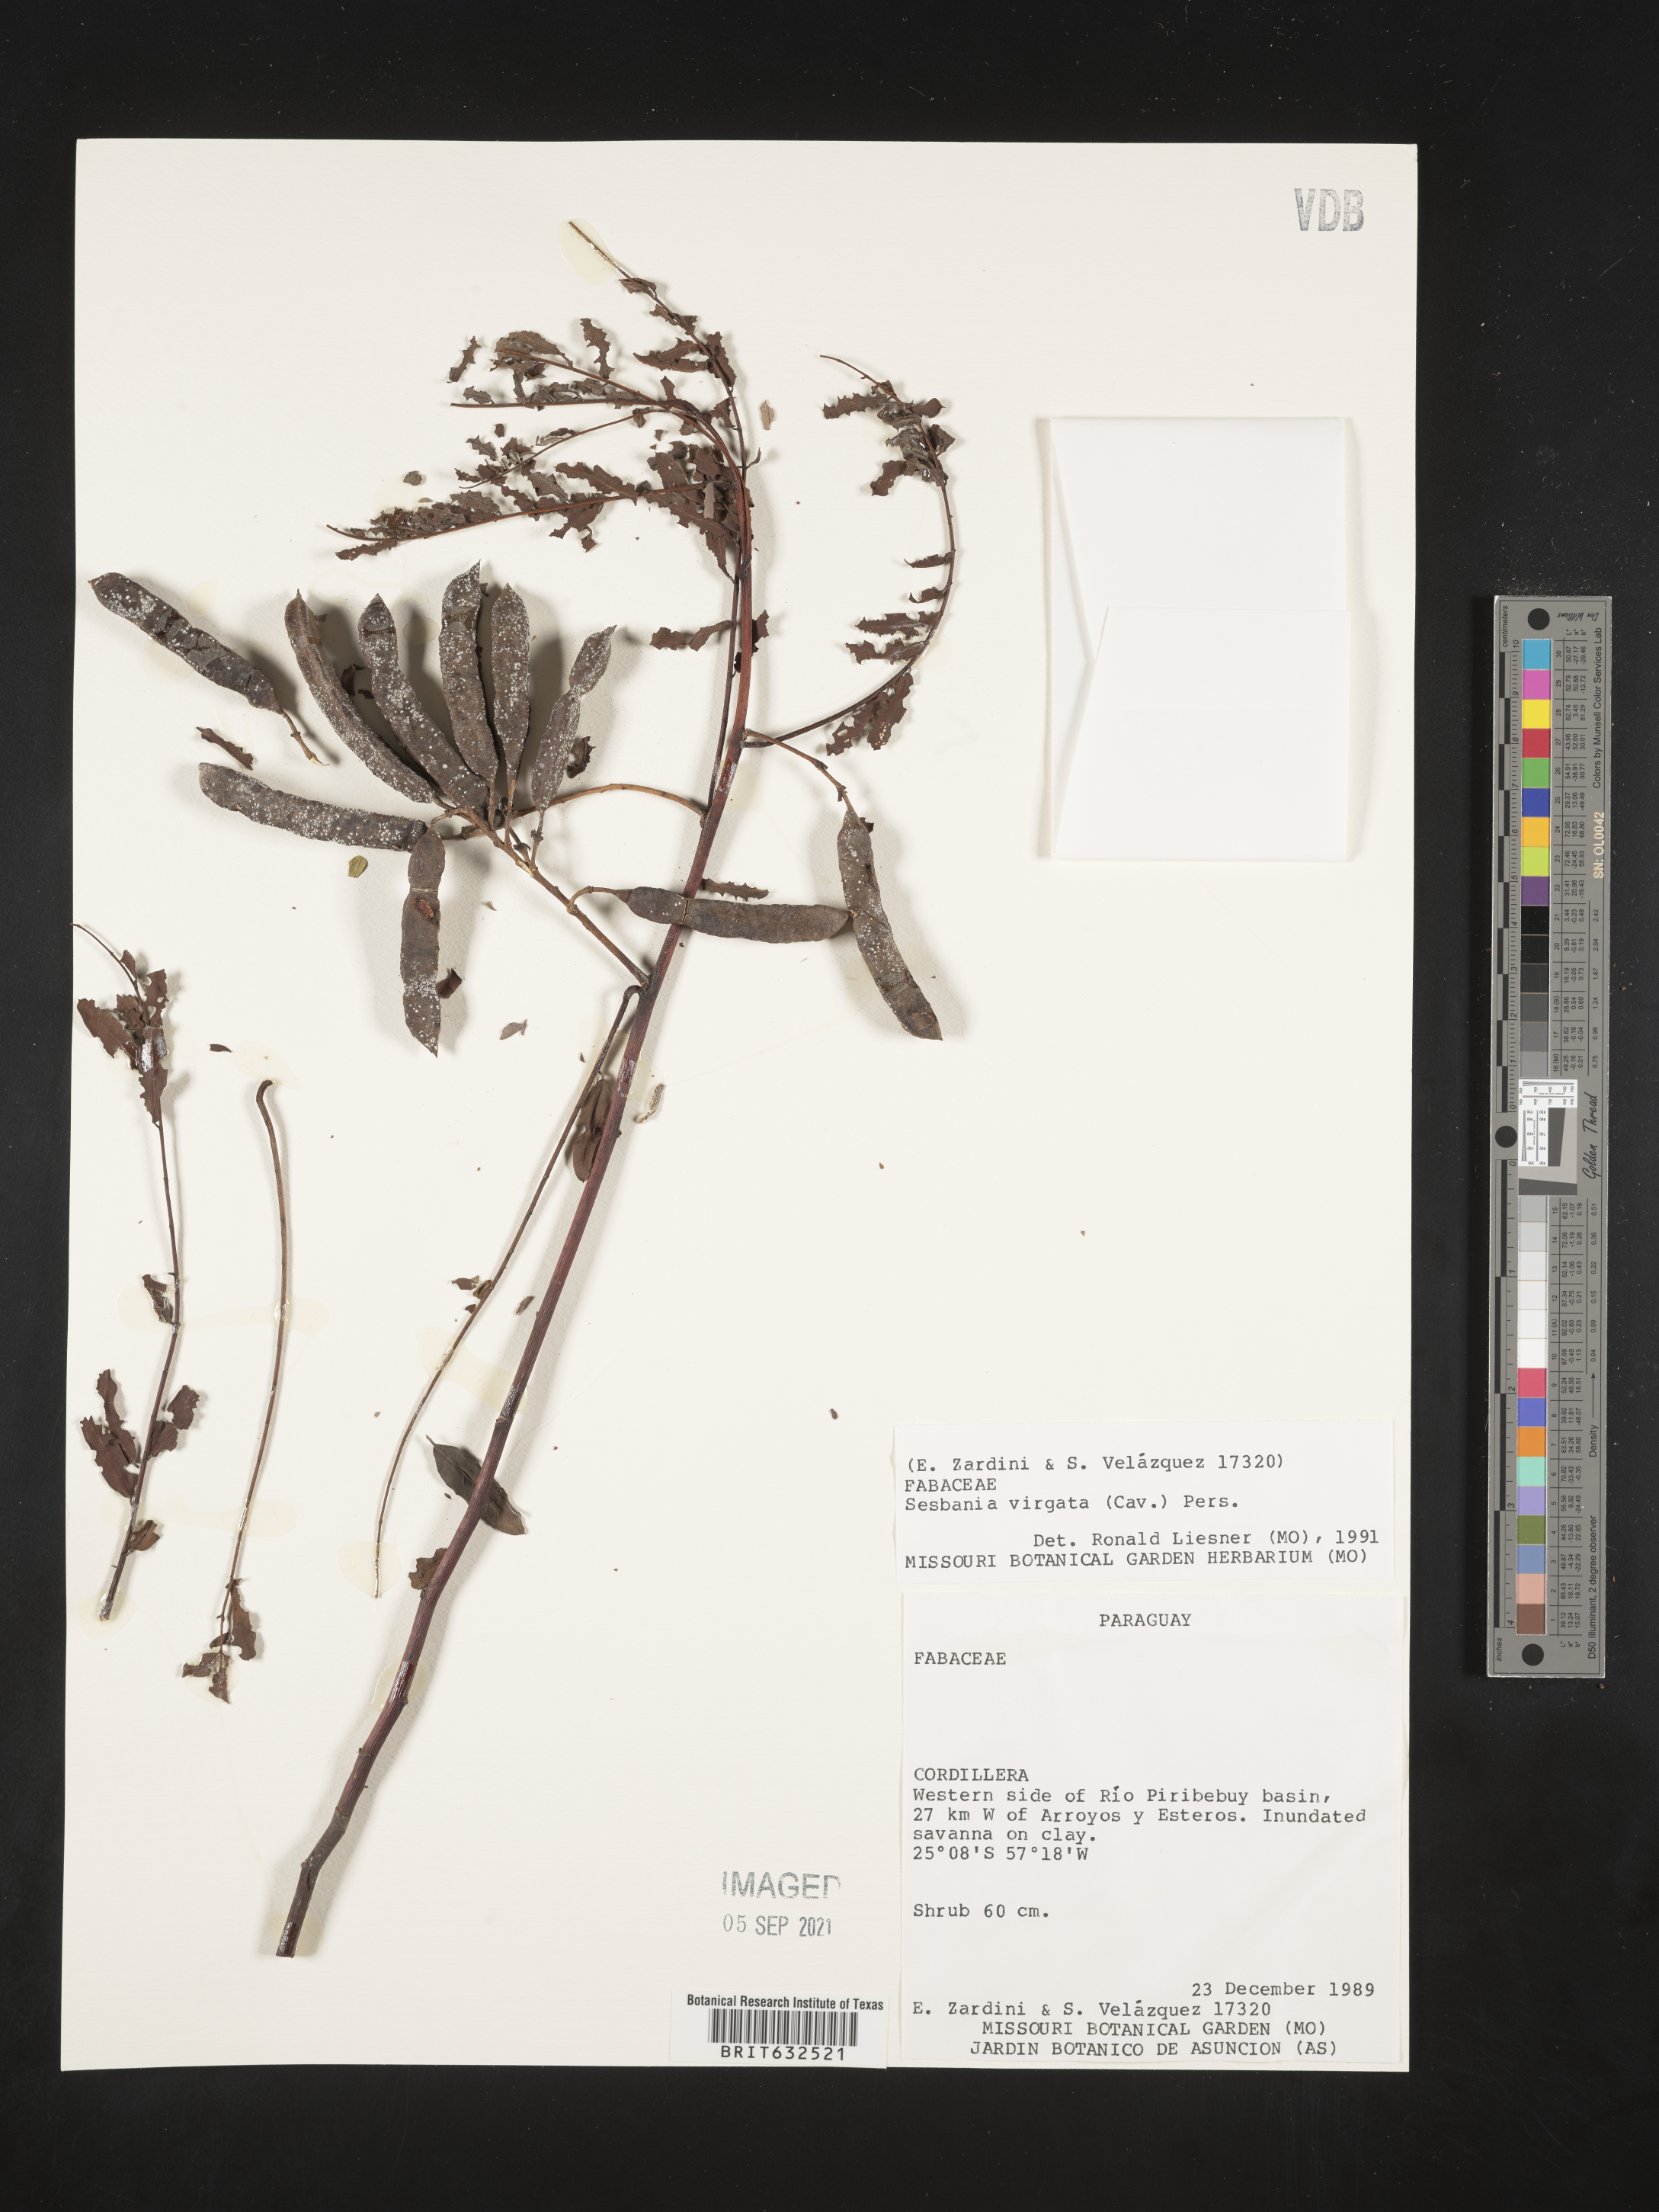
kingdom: Plantae
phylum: Tracheophyta
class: Magnoliopsida
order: Fabales
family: Fabaceae
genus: Sesbania
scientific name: Sesbania
